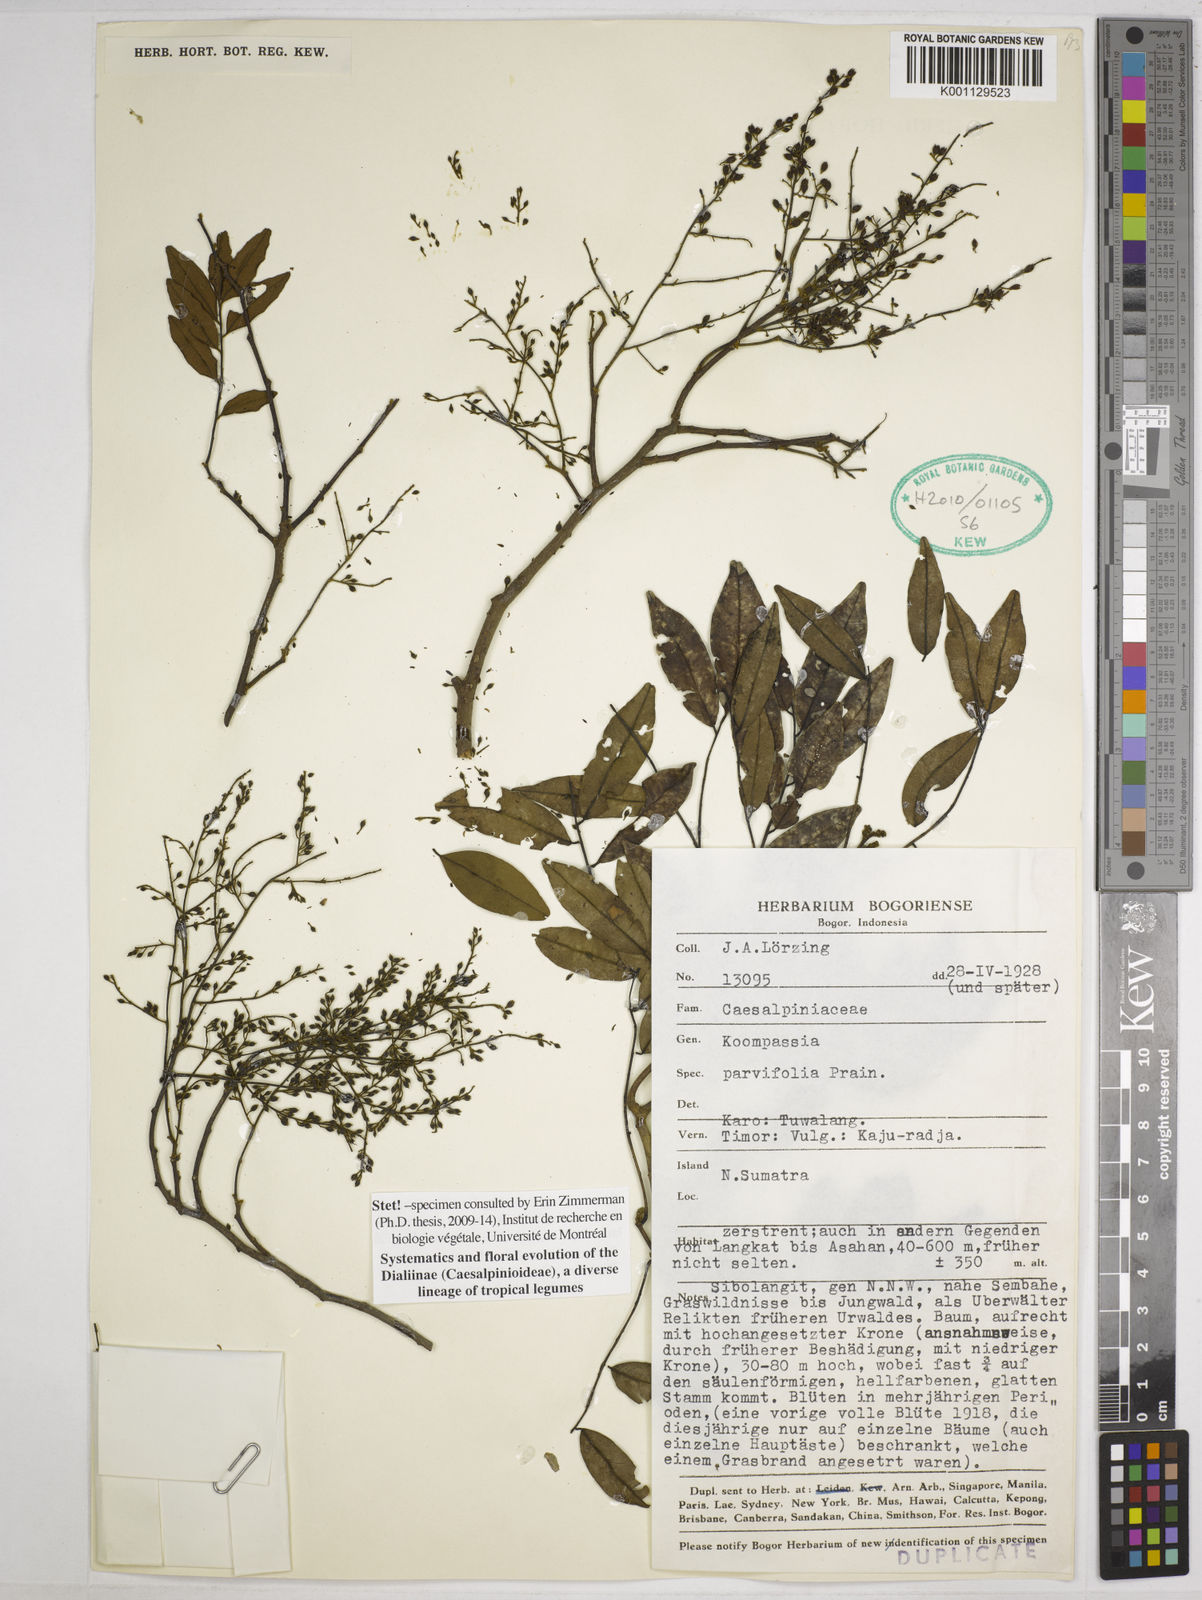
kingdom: Plantae
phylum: Tracheophyta
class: Magnoliopsida
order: Fabales
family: Fabaceae
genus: Koompassia
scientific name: Koompassia excelsa
